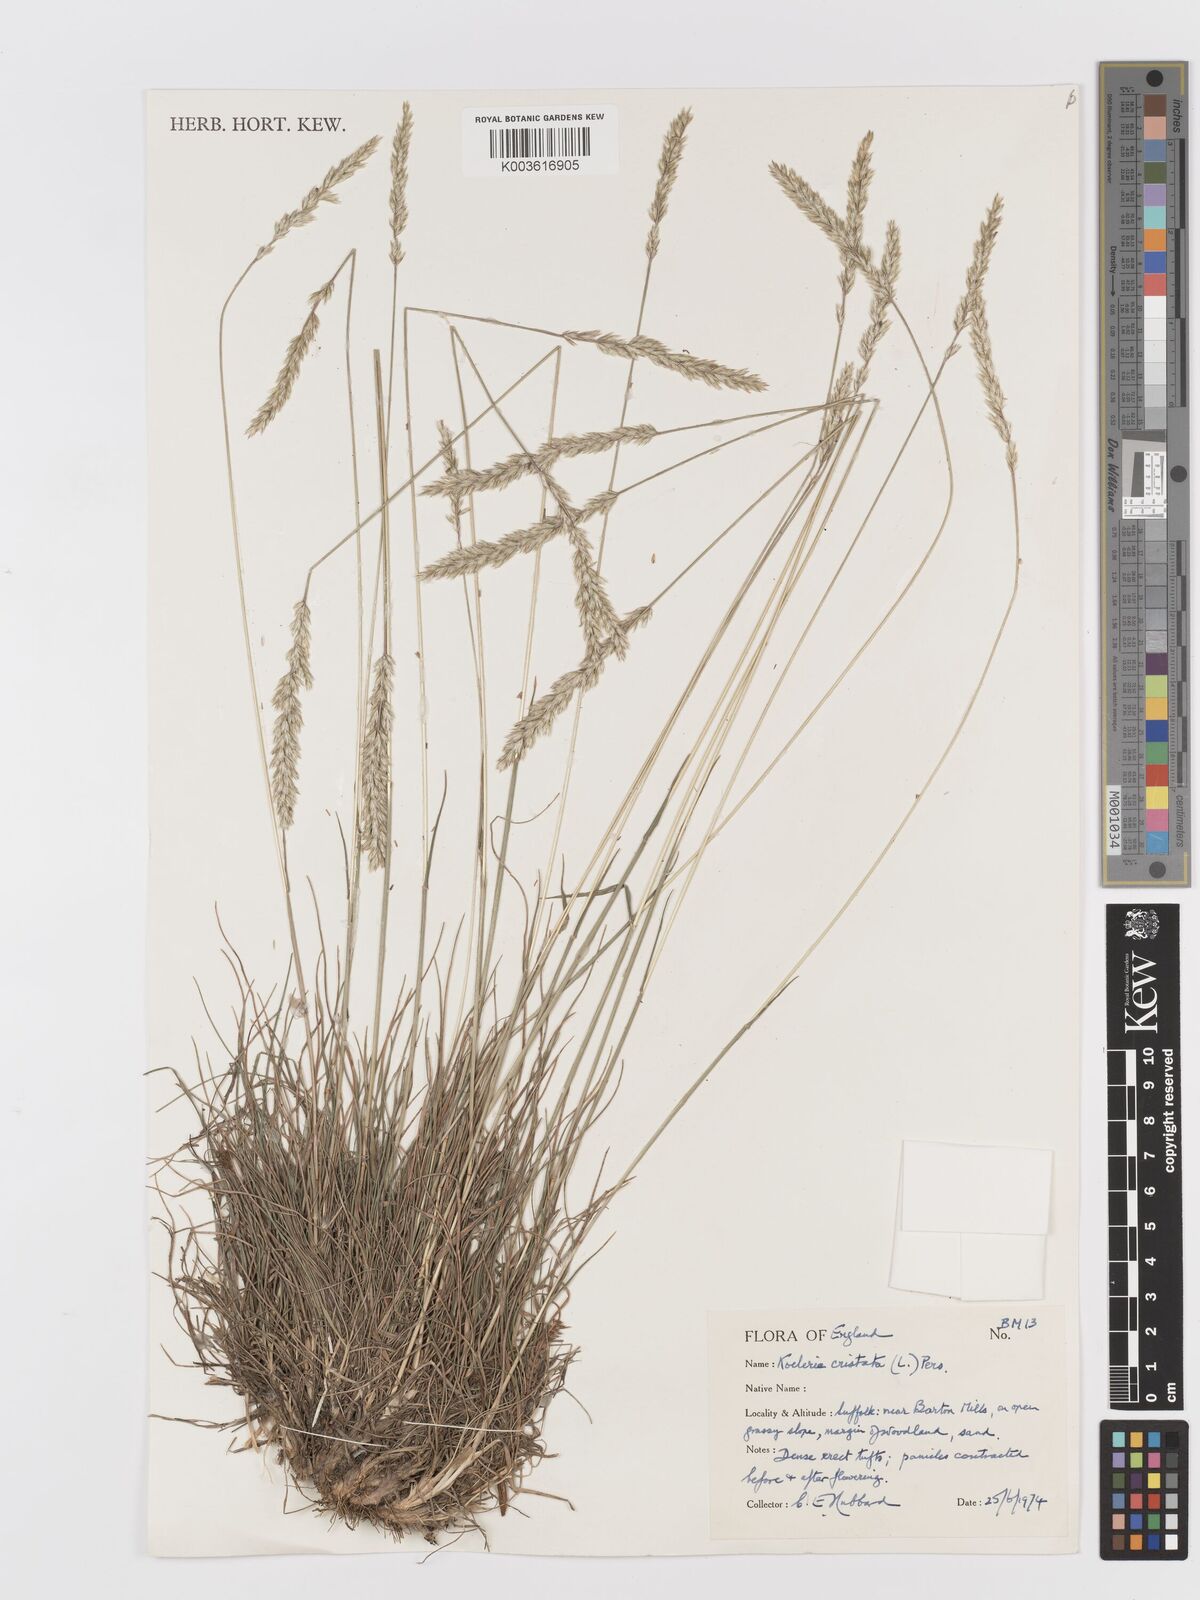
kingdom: Plantae
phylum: Tracheophyta
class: Liliopsida
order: Poales
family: Poaceae
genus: Koeleria
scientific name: Koeleria macrantha
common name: Crested hair-grass
